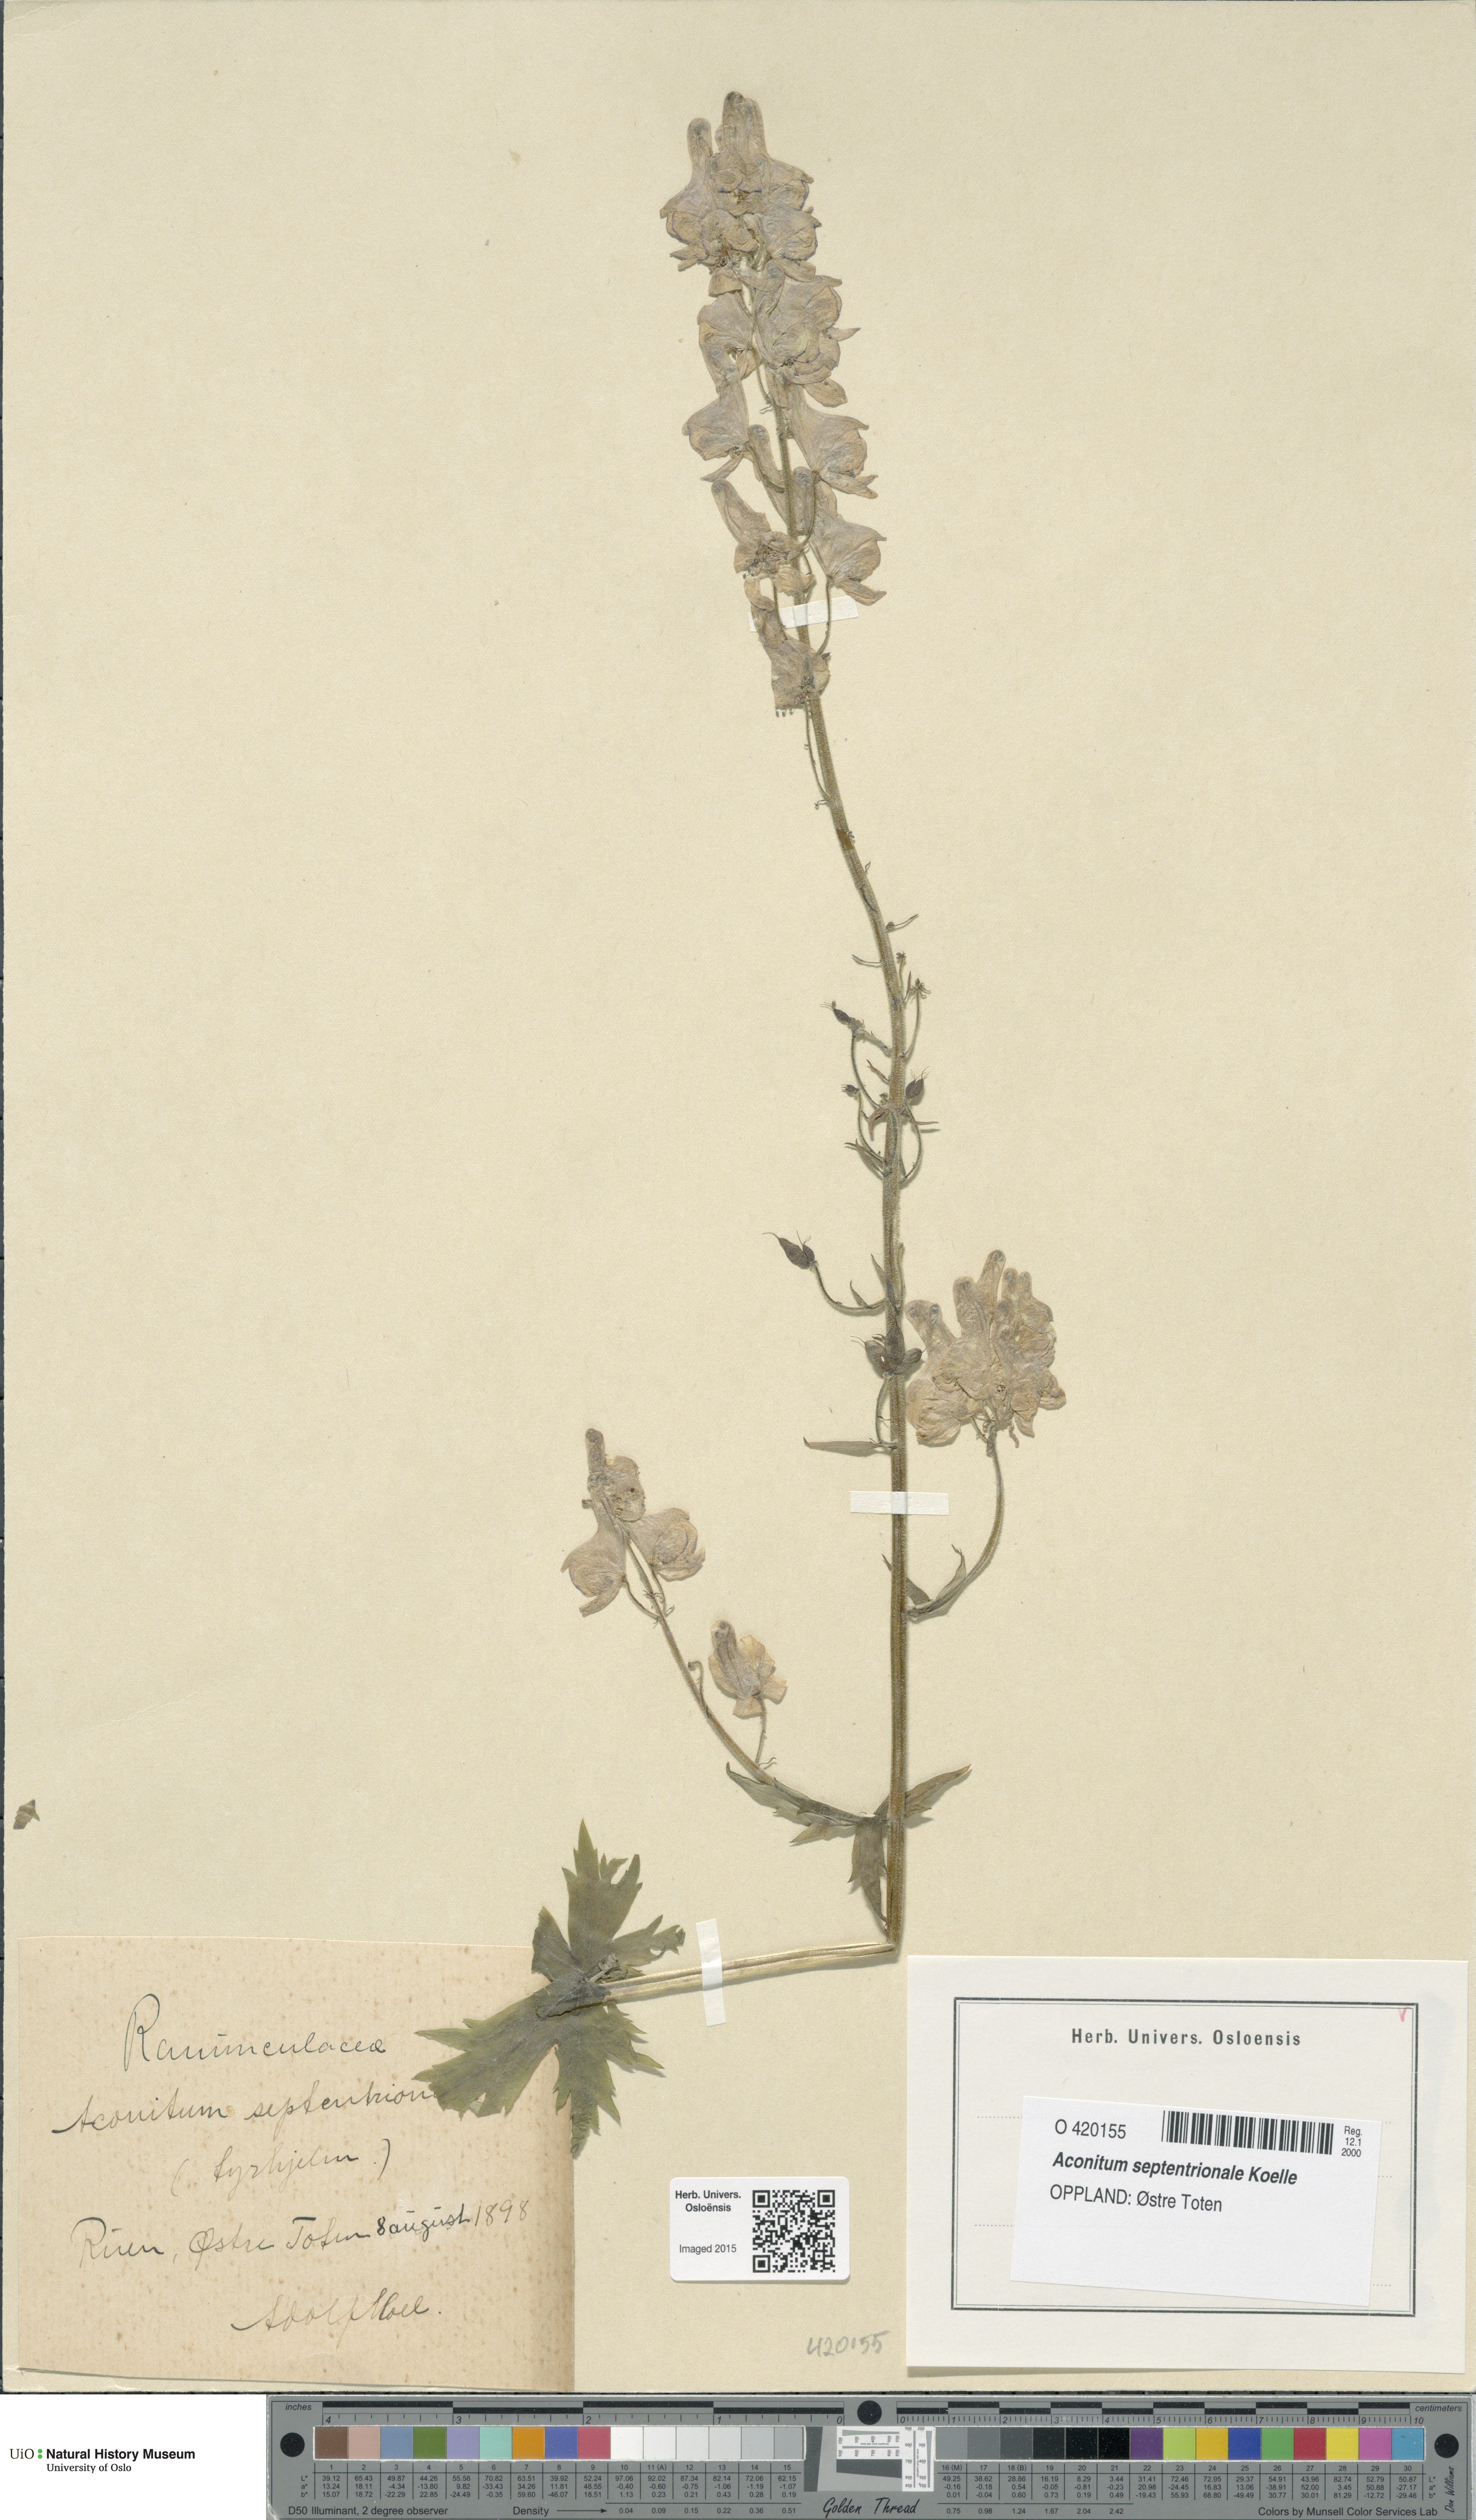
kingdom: Plantae
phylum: Tracheophyta
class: Magnoliopsida
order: Ranunculales
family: Ranunculaceae
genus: Aconitum
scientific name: Aconitum septentrionale
